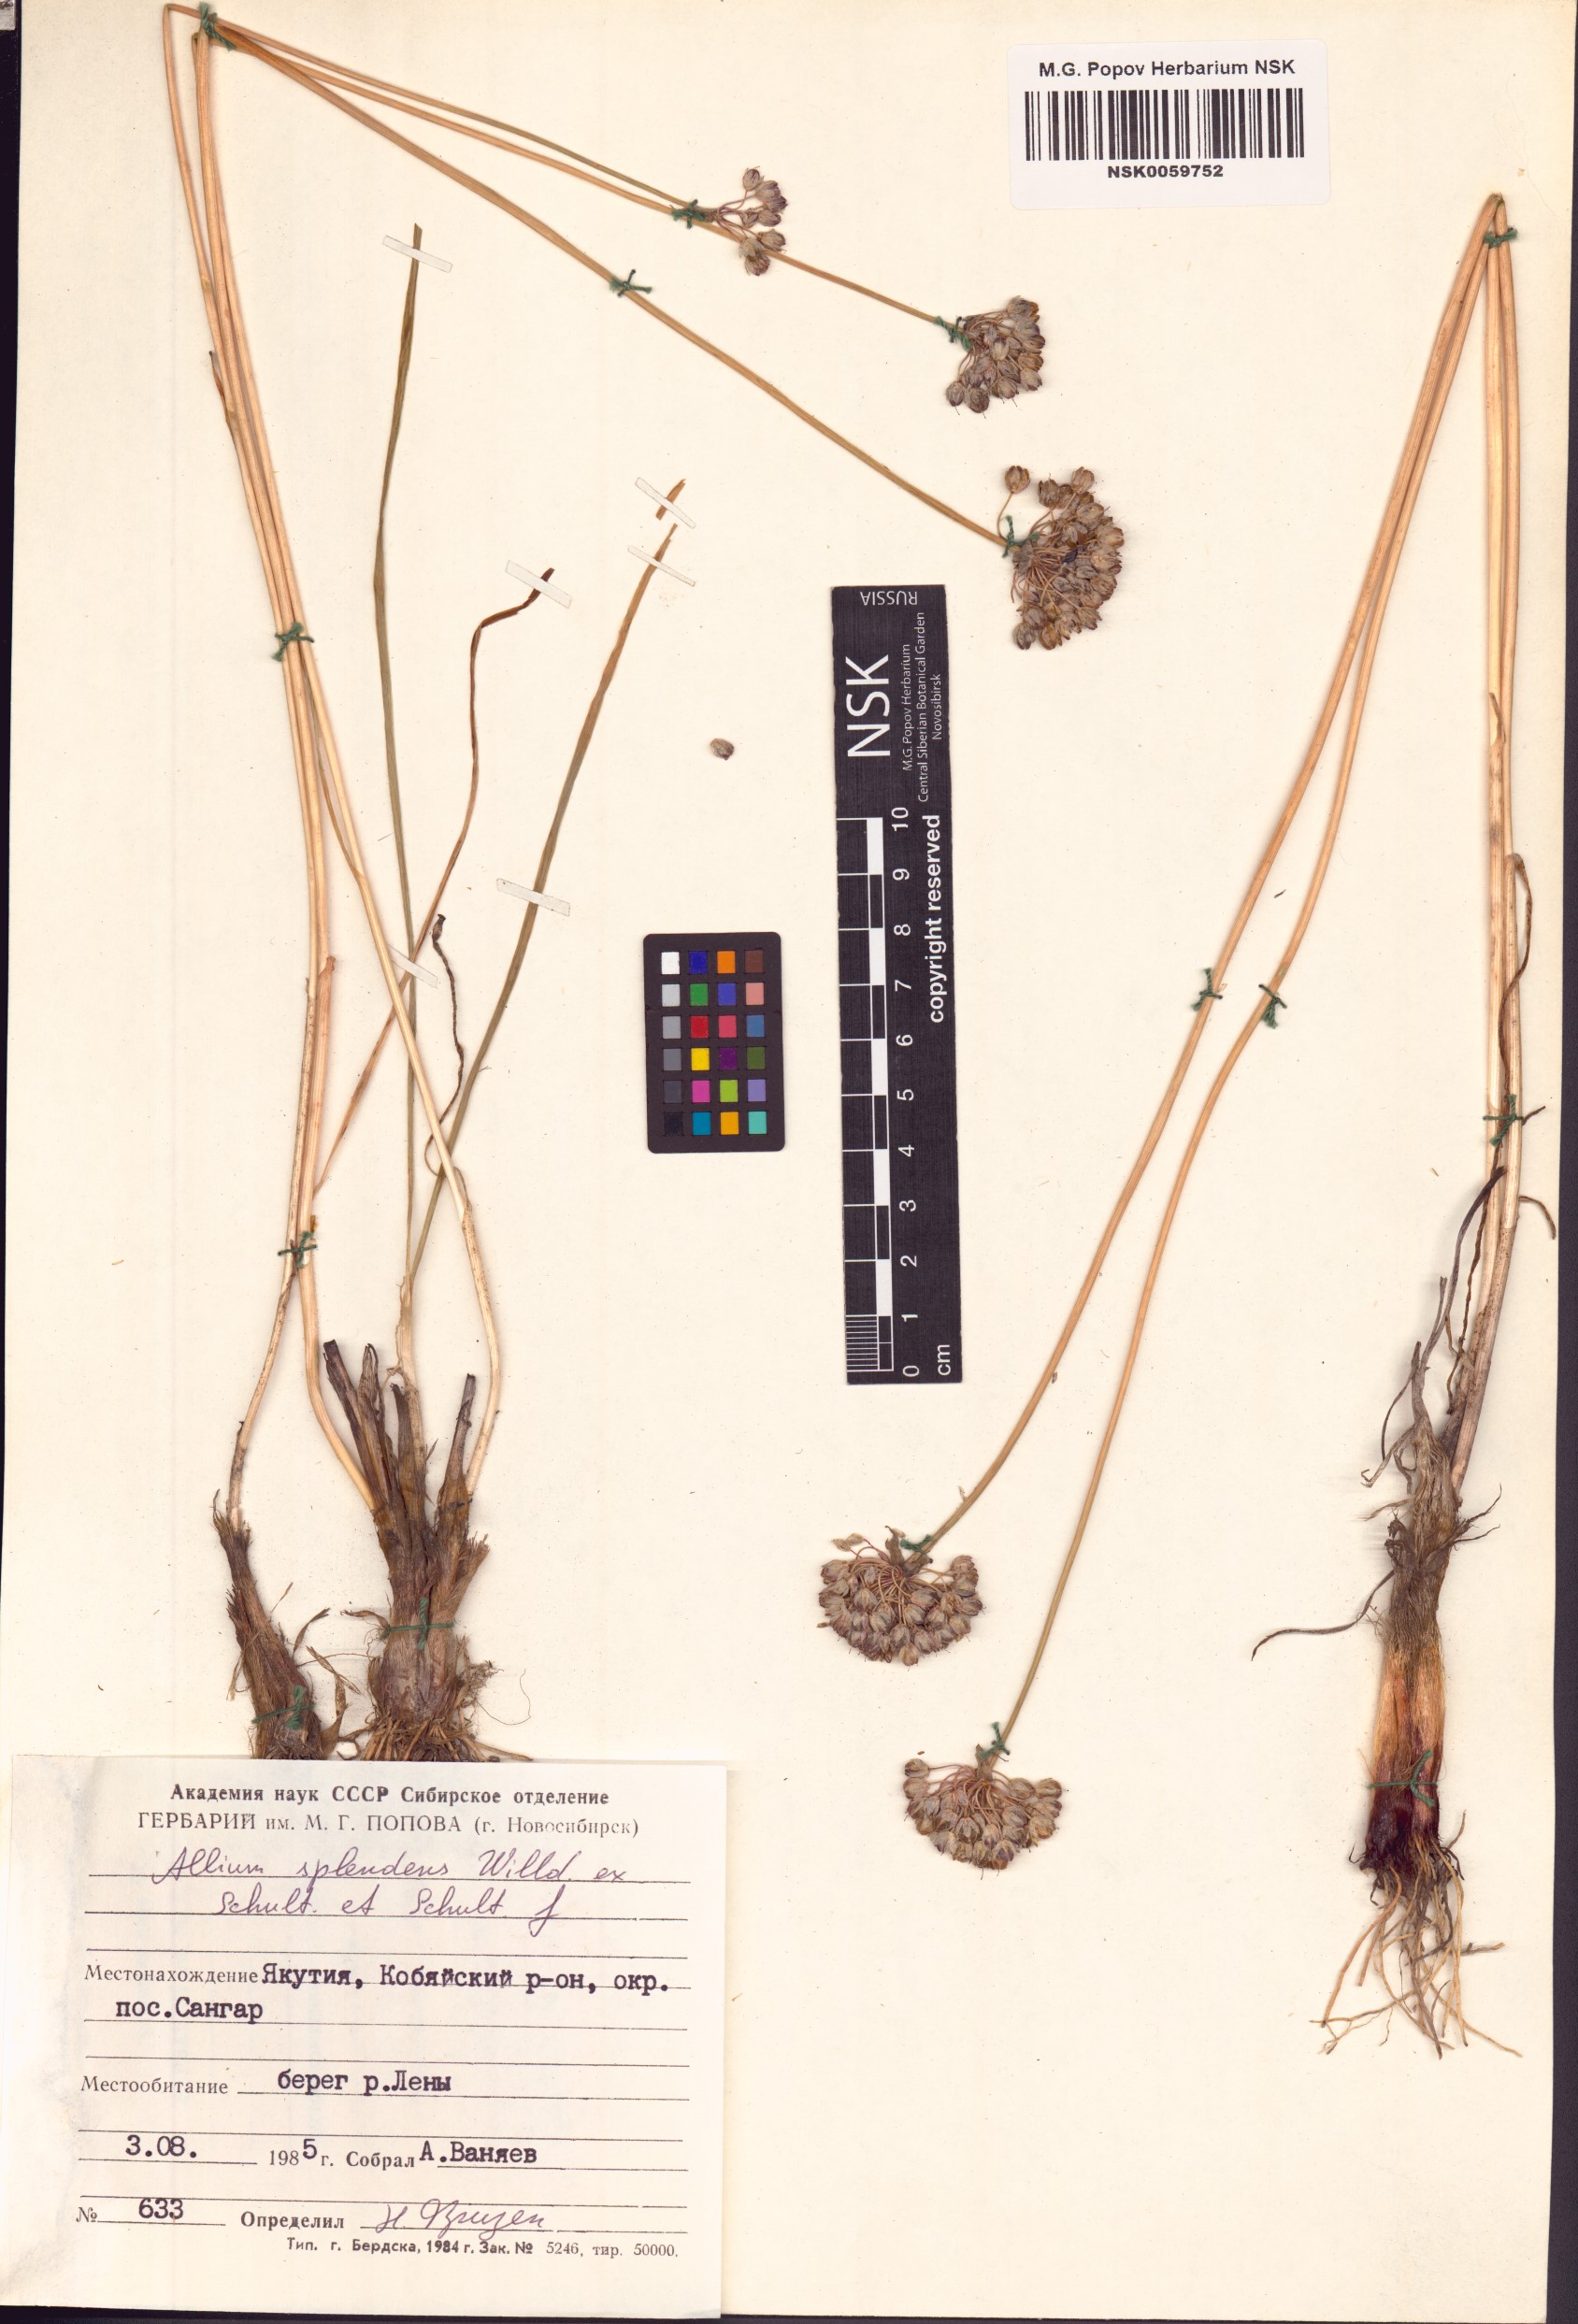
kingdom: Plantae
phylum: Tracheophyta
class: Liliopsida
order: Asparagales
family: Amaryllidaceae
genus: Allium
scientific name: Allium splendens
